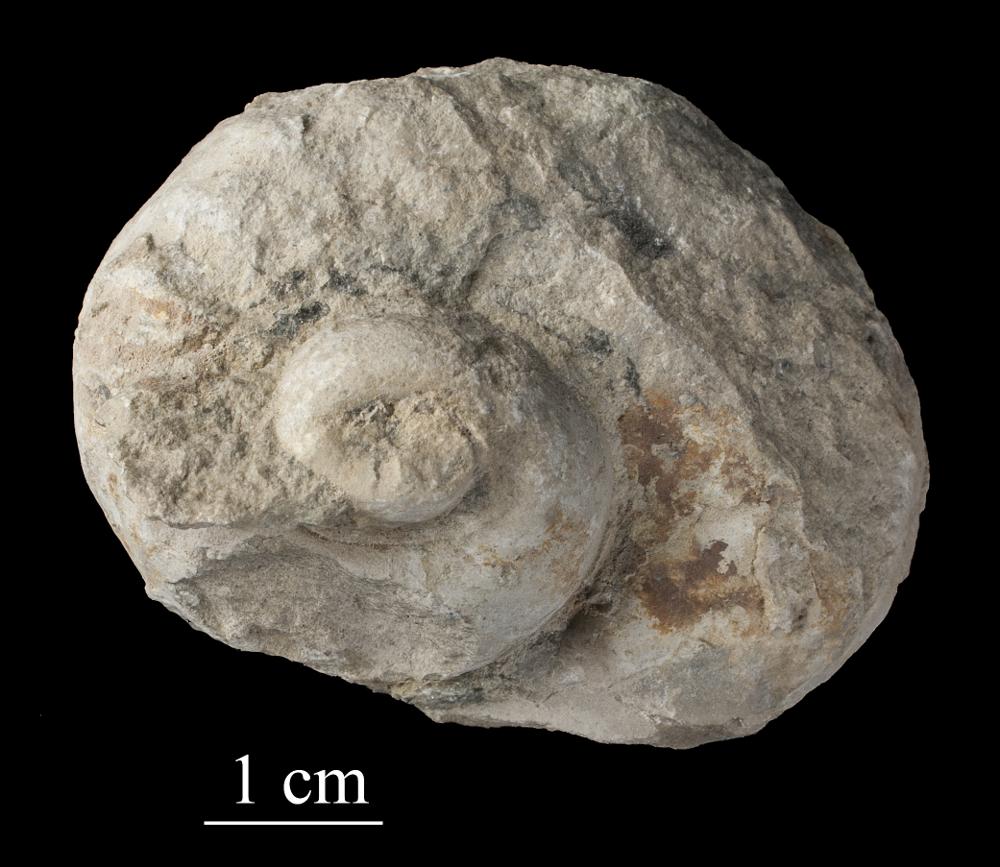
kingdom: Animalia
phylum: Mollusca
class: Gastropoda
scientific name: Gastropoda
